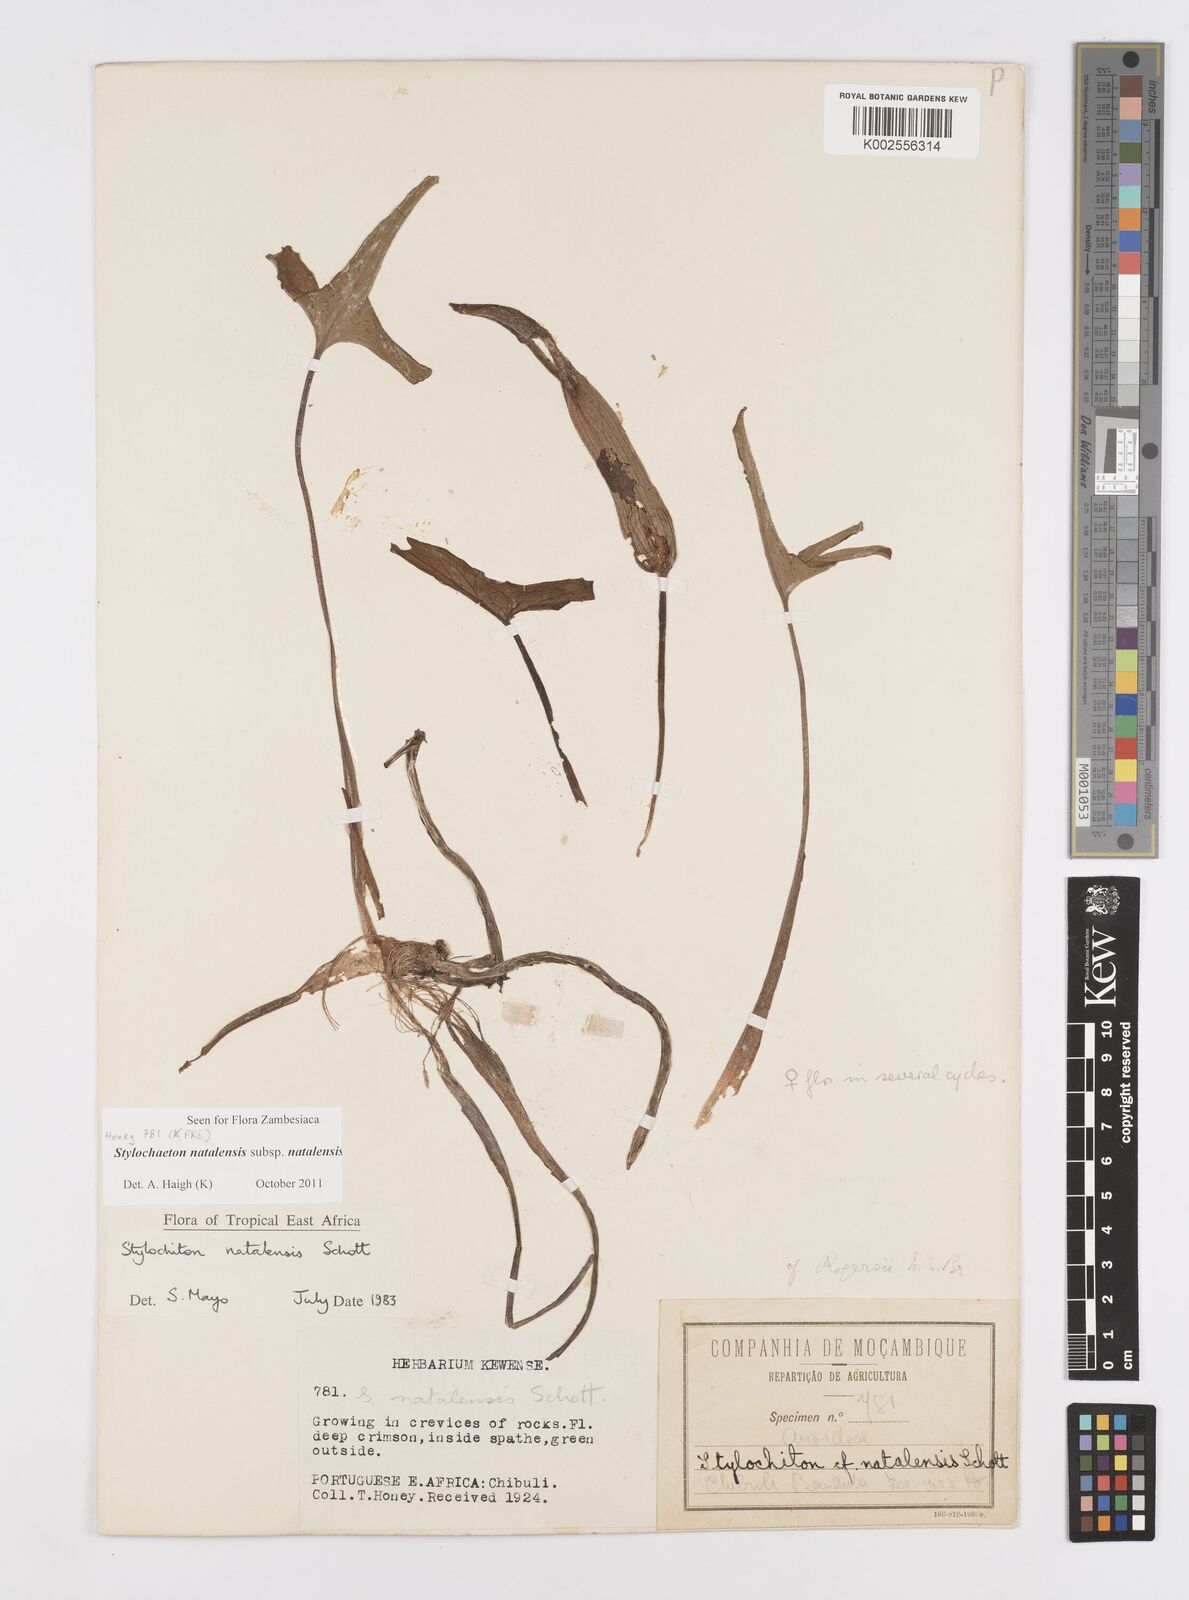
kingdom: Plantae
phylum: Tracheophyta
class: Liliopsida
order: Alismatales
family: Araceae
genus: Stylochaeton
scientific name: Stylochaeton natalense
